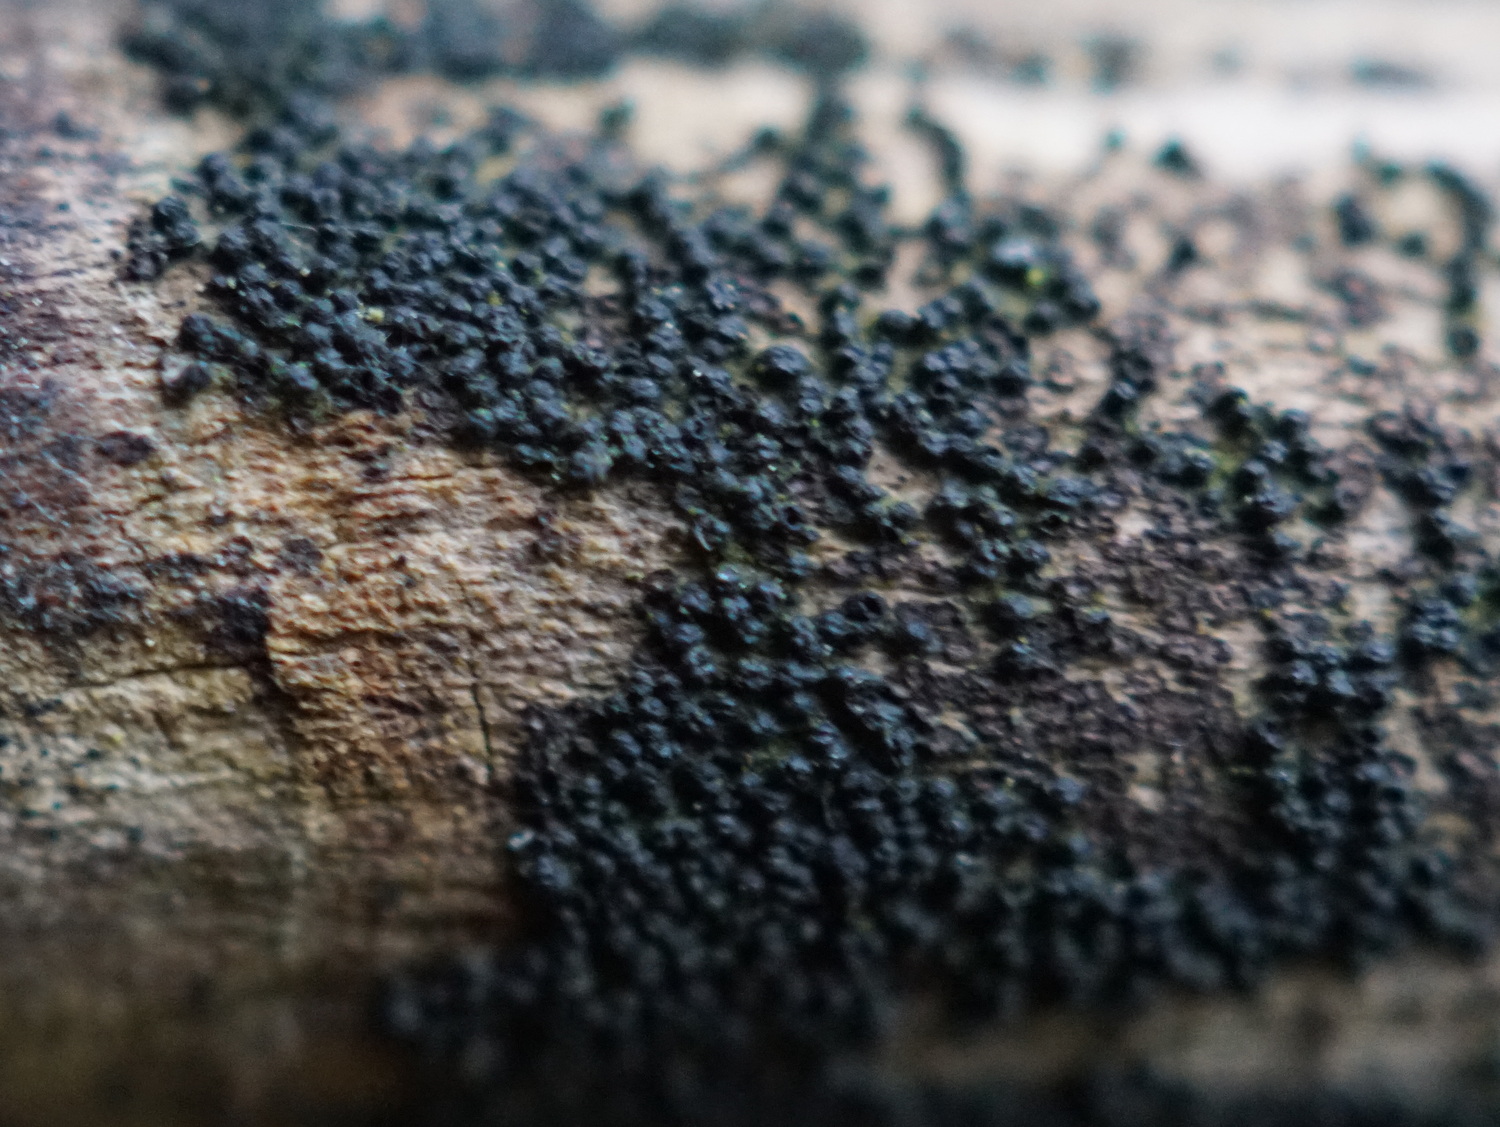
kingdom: Fungi
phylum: Ascomycota
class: Dothideomycetes
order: Pleosporales
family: Melanommataceae
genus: Melanomma
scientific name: Melanomma pulvis-pyrius
